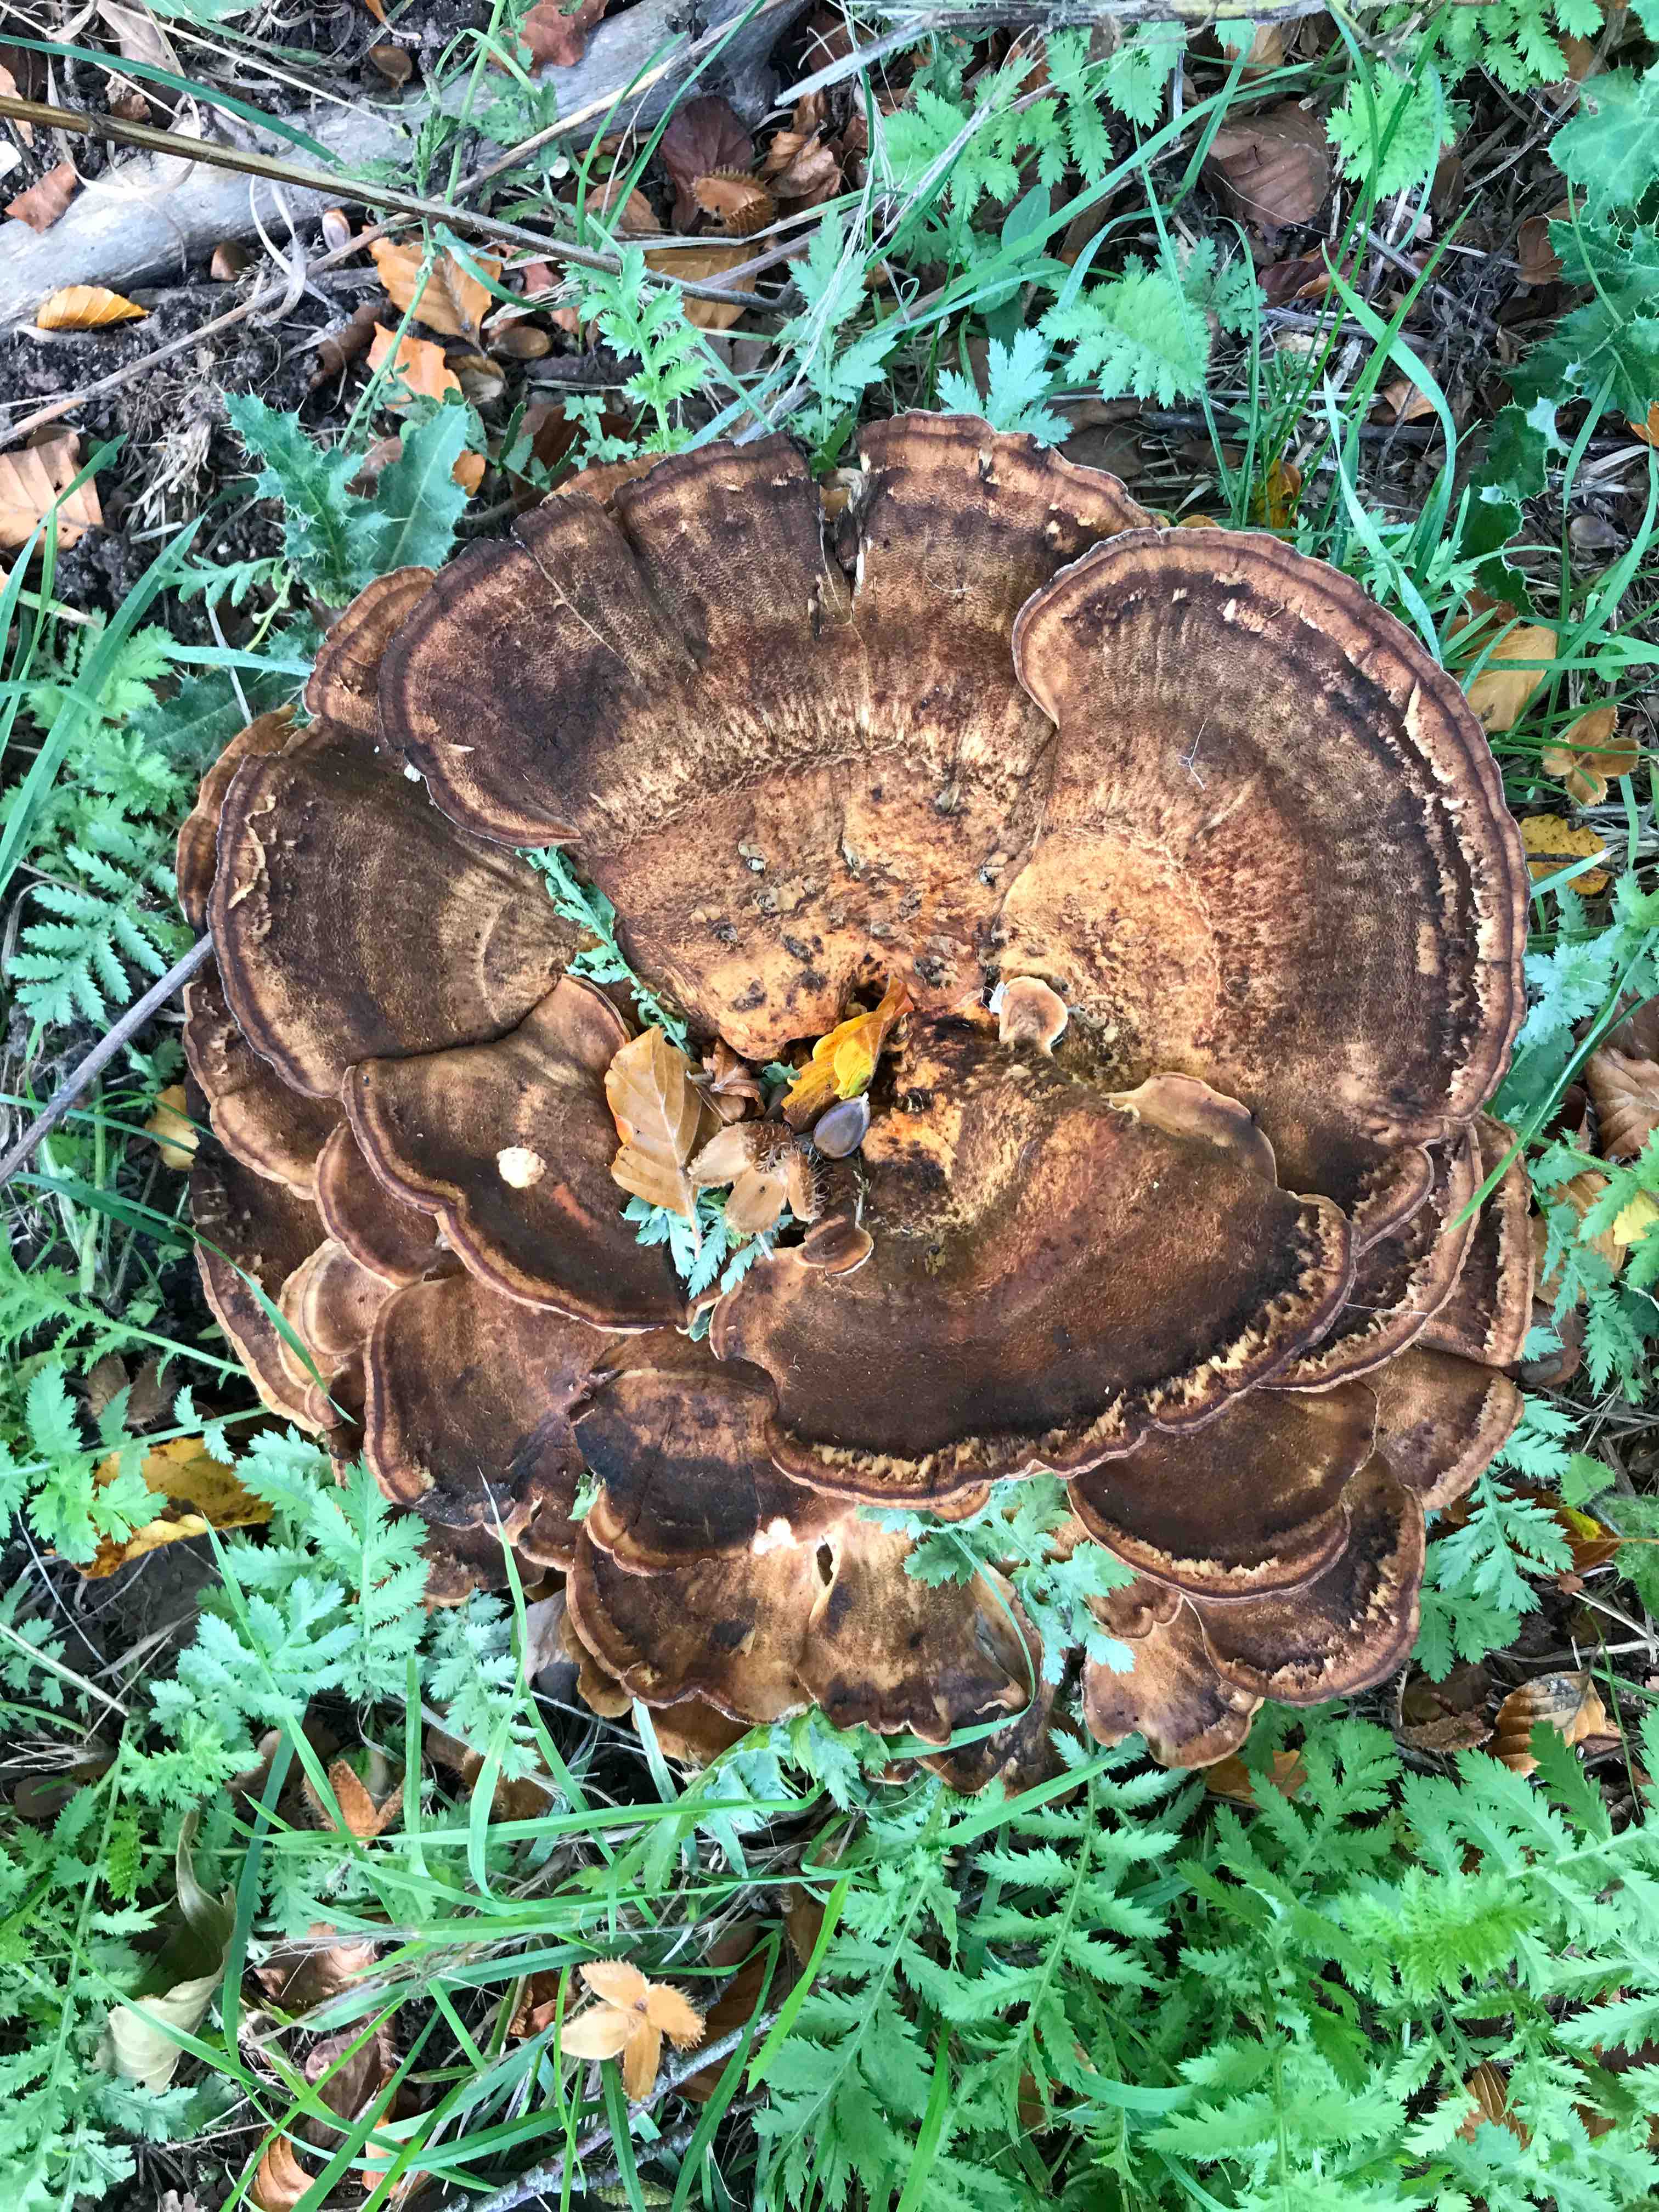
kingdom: Fungi
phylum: Basidiomycota
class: Agaricomycetes
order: Polyporales
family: Meripilaceae
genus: Meripilus
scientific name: Meripilus giganteus
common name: kæmpeporesvamp
